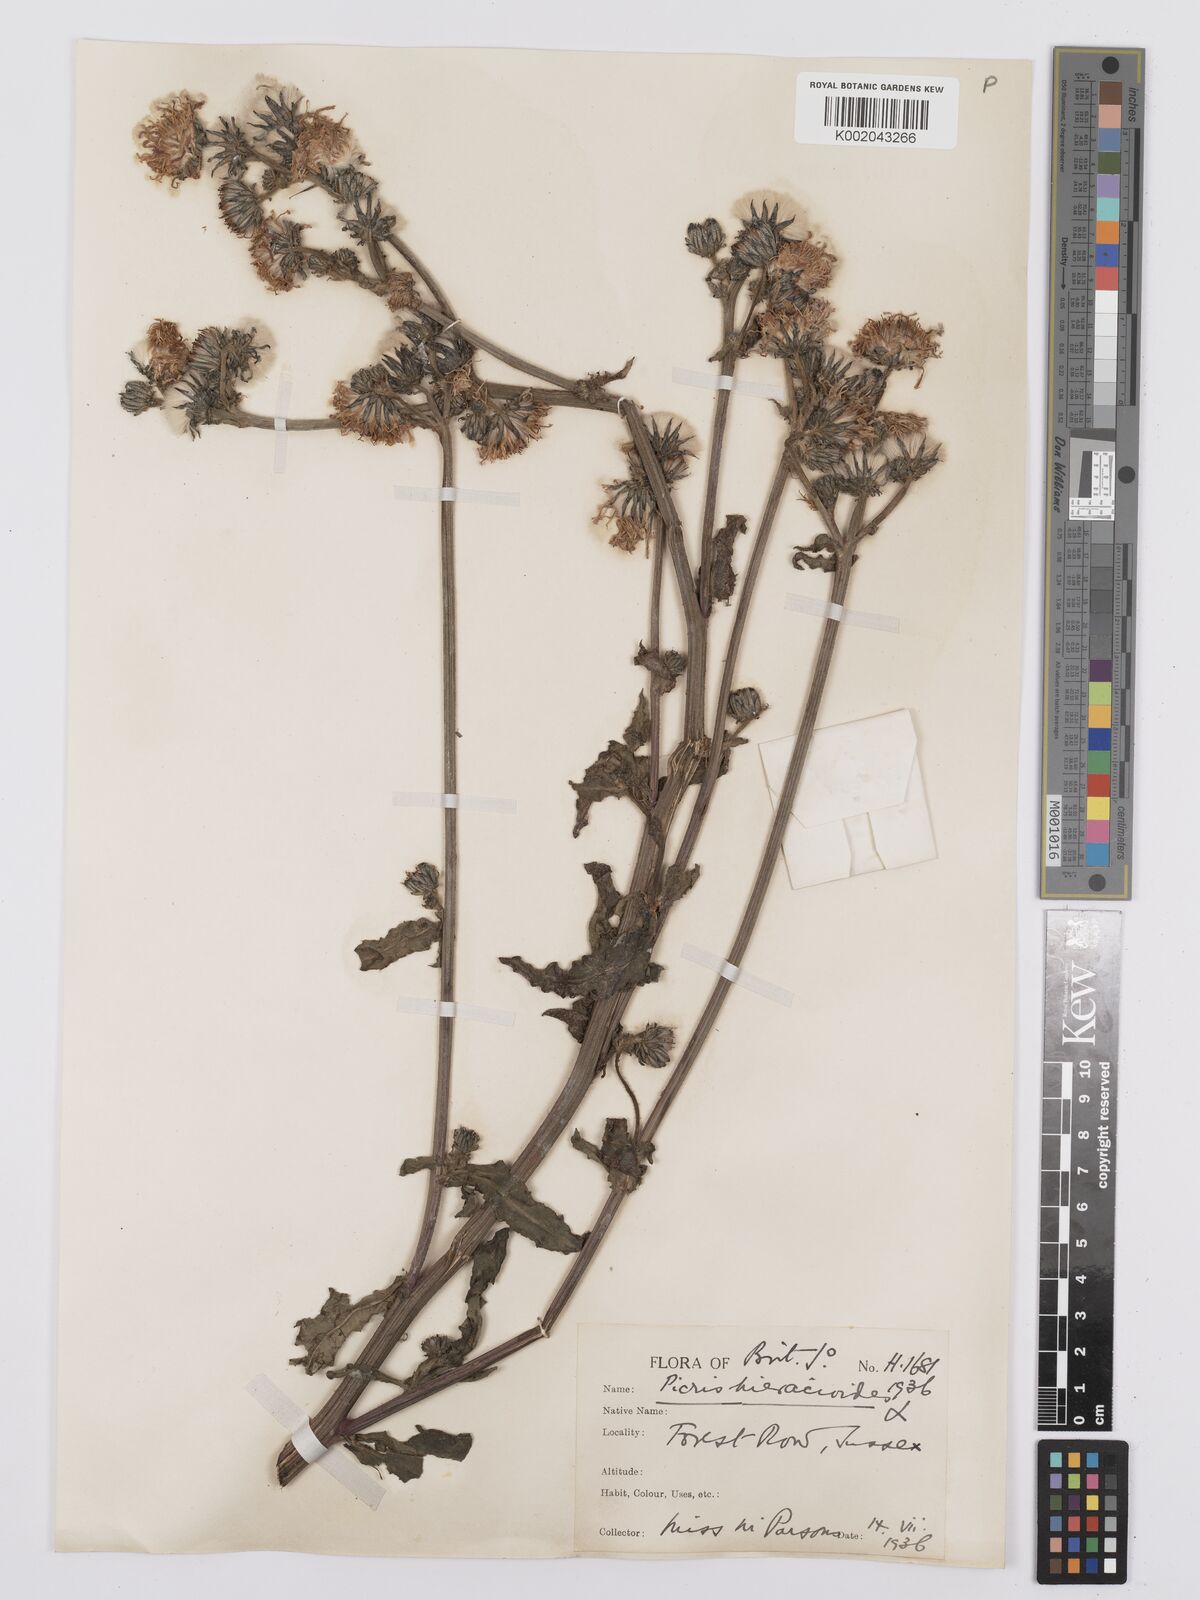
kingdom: Plantae
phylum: Tracheophyta
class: Magnoliopsida
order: Asterales
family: Asteraceae
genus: Picris
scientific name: Picris hieracioides
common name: Hawkweed oxtongue
